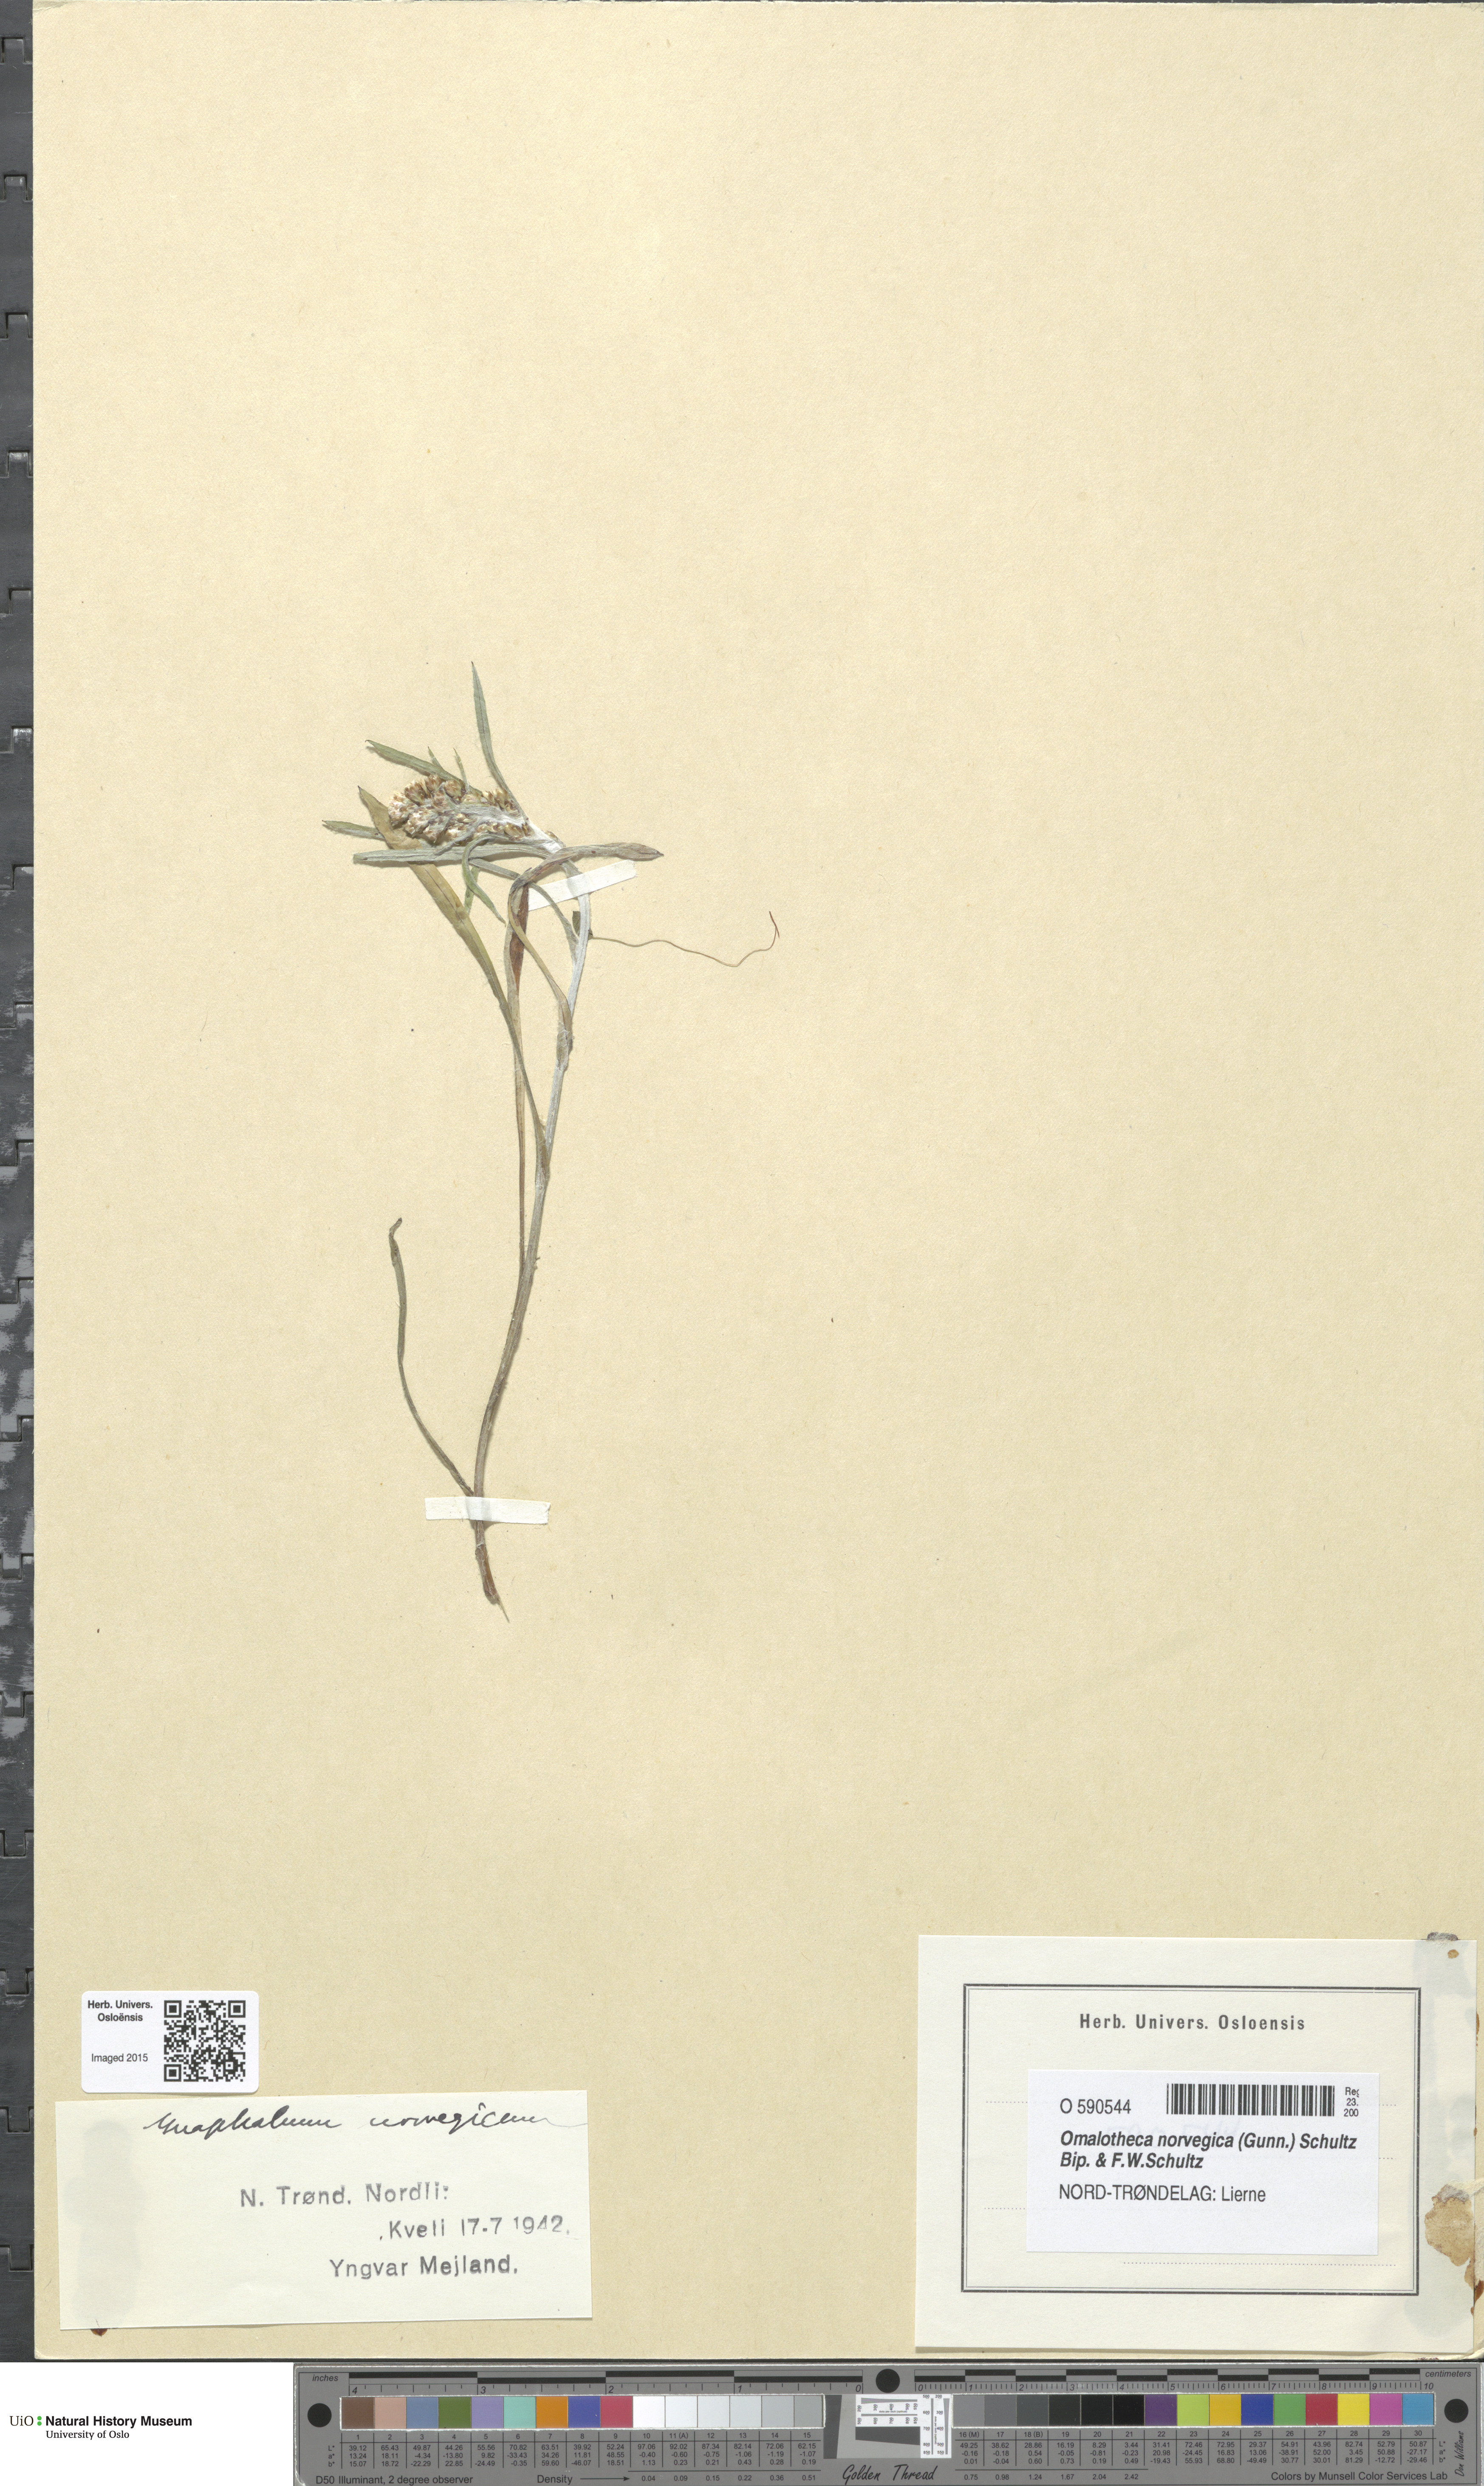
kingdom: Plantae
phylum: Tracheophyta
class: Magnoliopsida
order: Asterales
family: Asteraceae
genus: Omalotheca
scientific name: Omalotheca norvegica
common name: Norwegian arctic-cudweed
